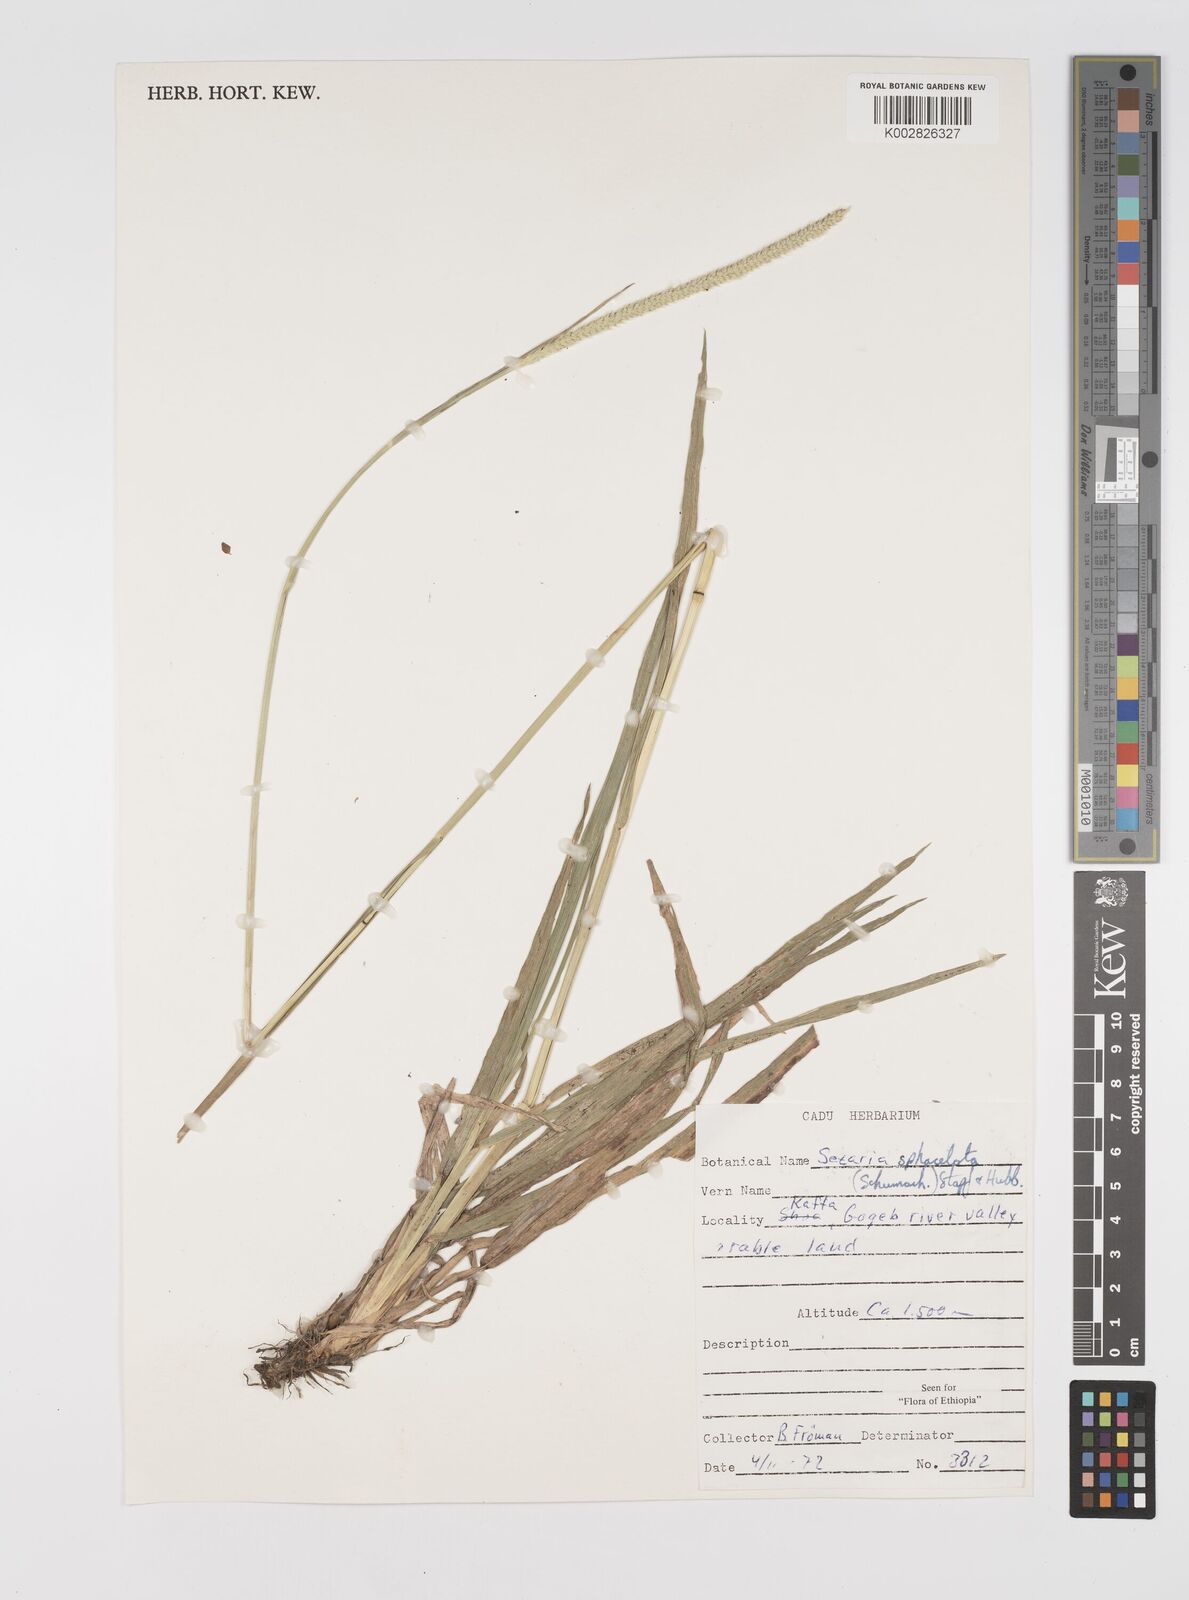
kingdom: Plantae
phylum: Tracheophyta
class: Liliopsida
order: Poales
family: Poaceae
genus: Setaria
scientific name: Setaria sphacelata
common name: African bristlegrass
